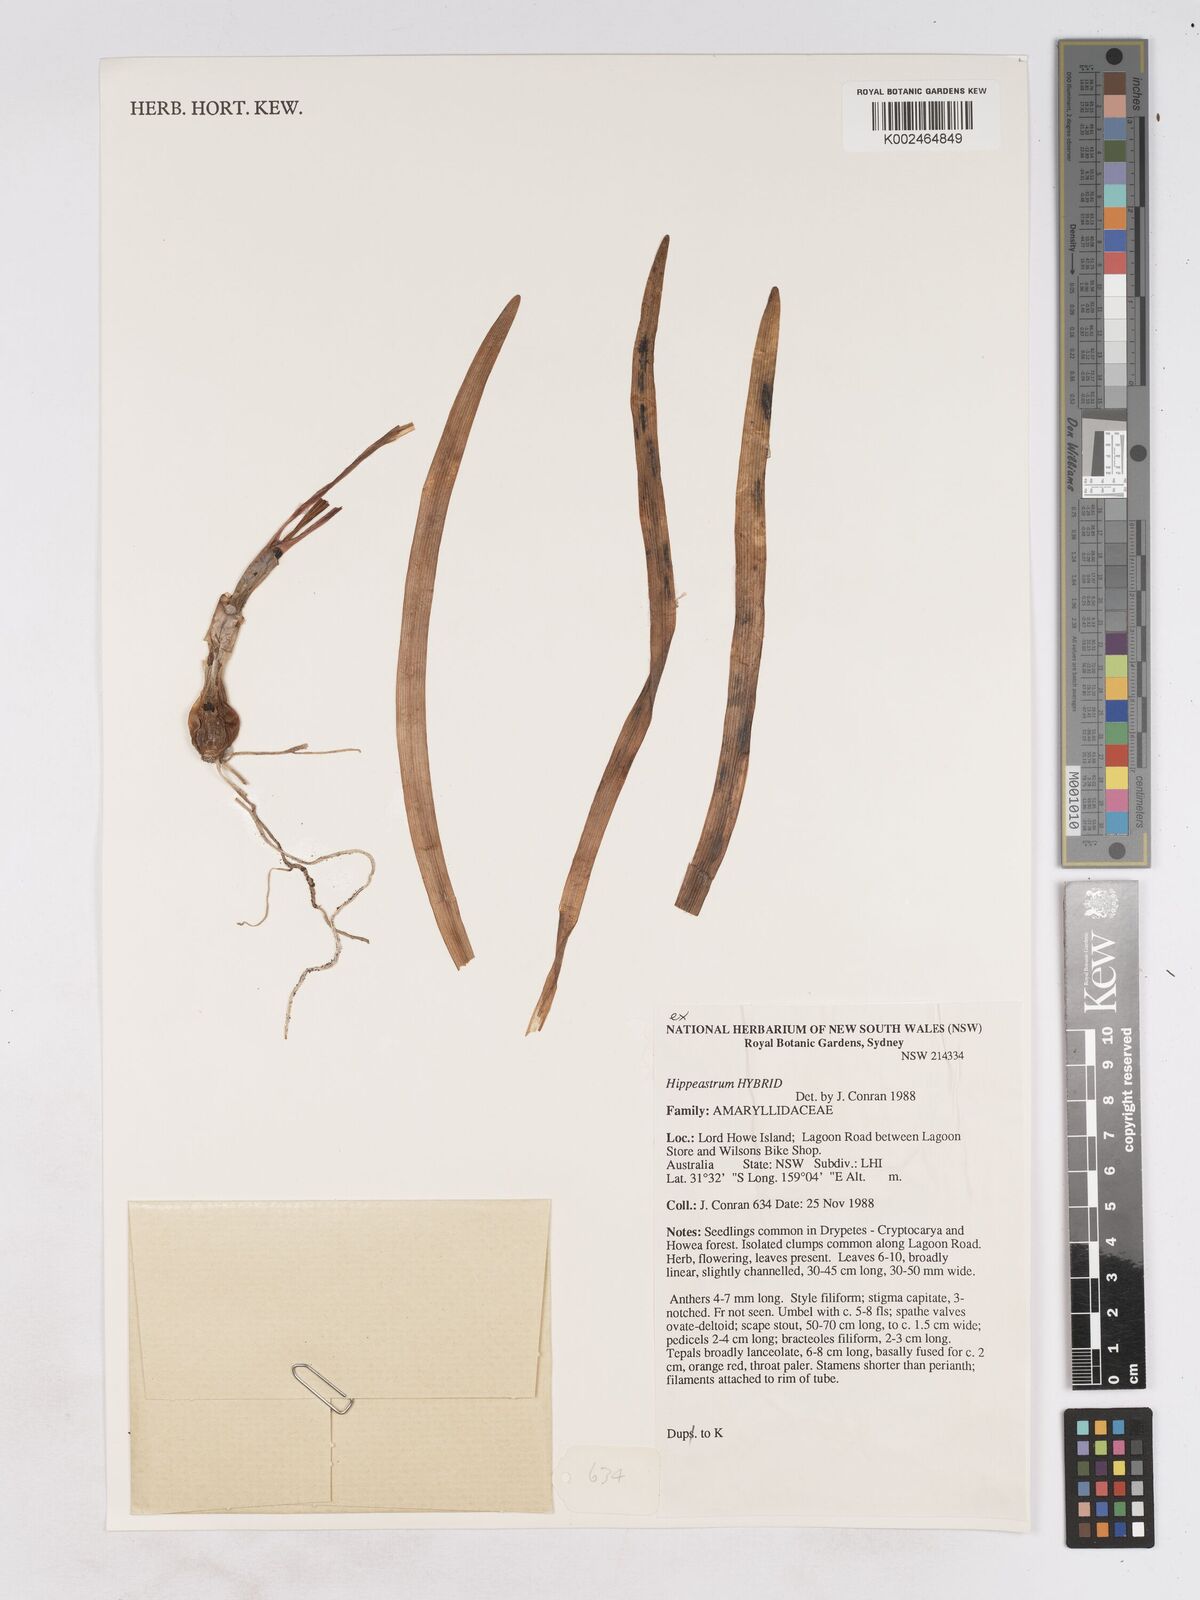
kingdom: Plantae
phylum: Tracheophyta
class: Liliopsida
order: Asparagales
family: Amaryllidaceae
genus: Hippeastrum
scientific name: Hippeastrum puniceum
